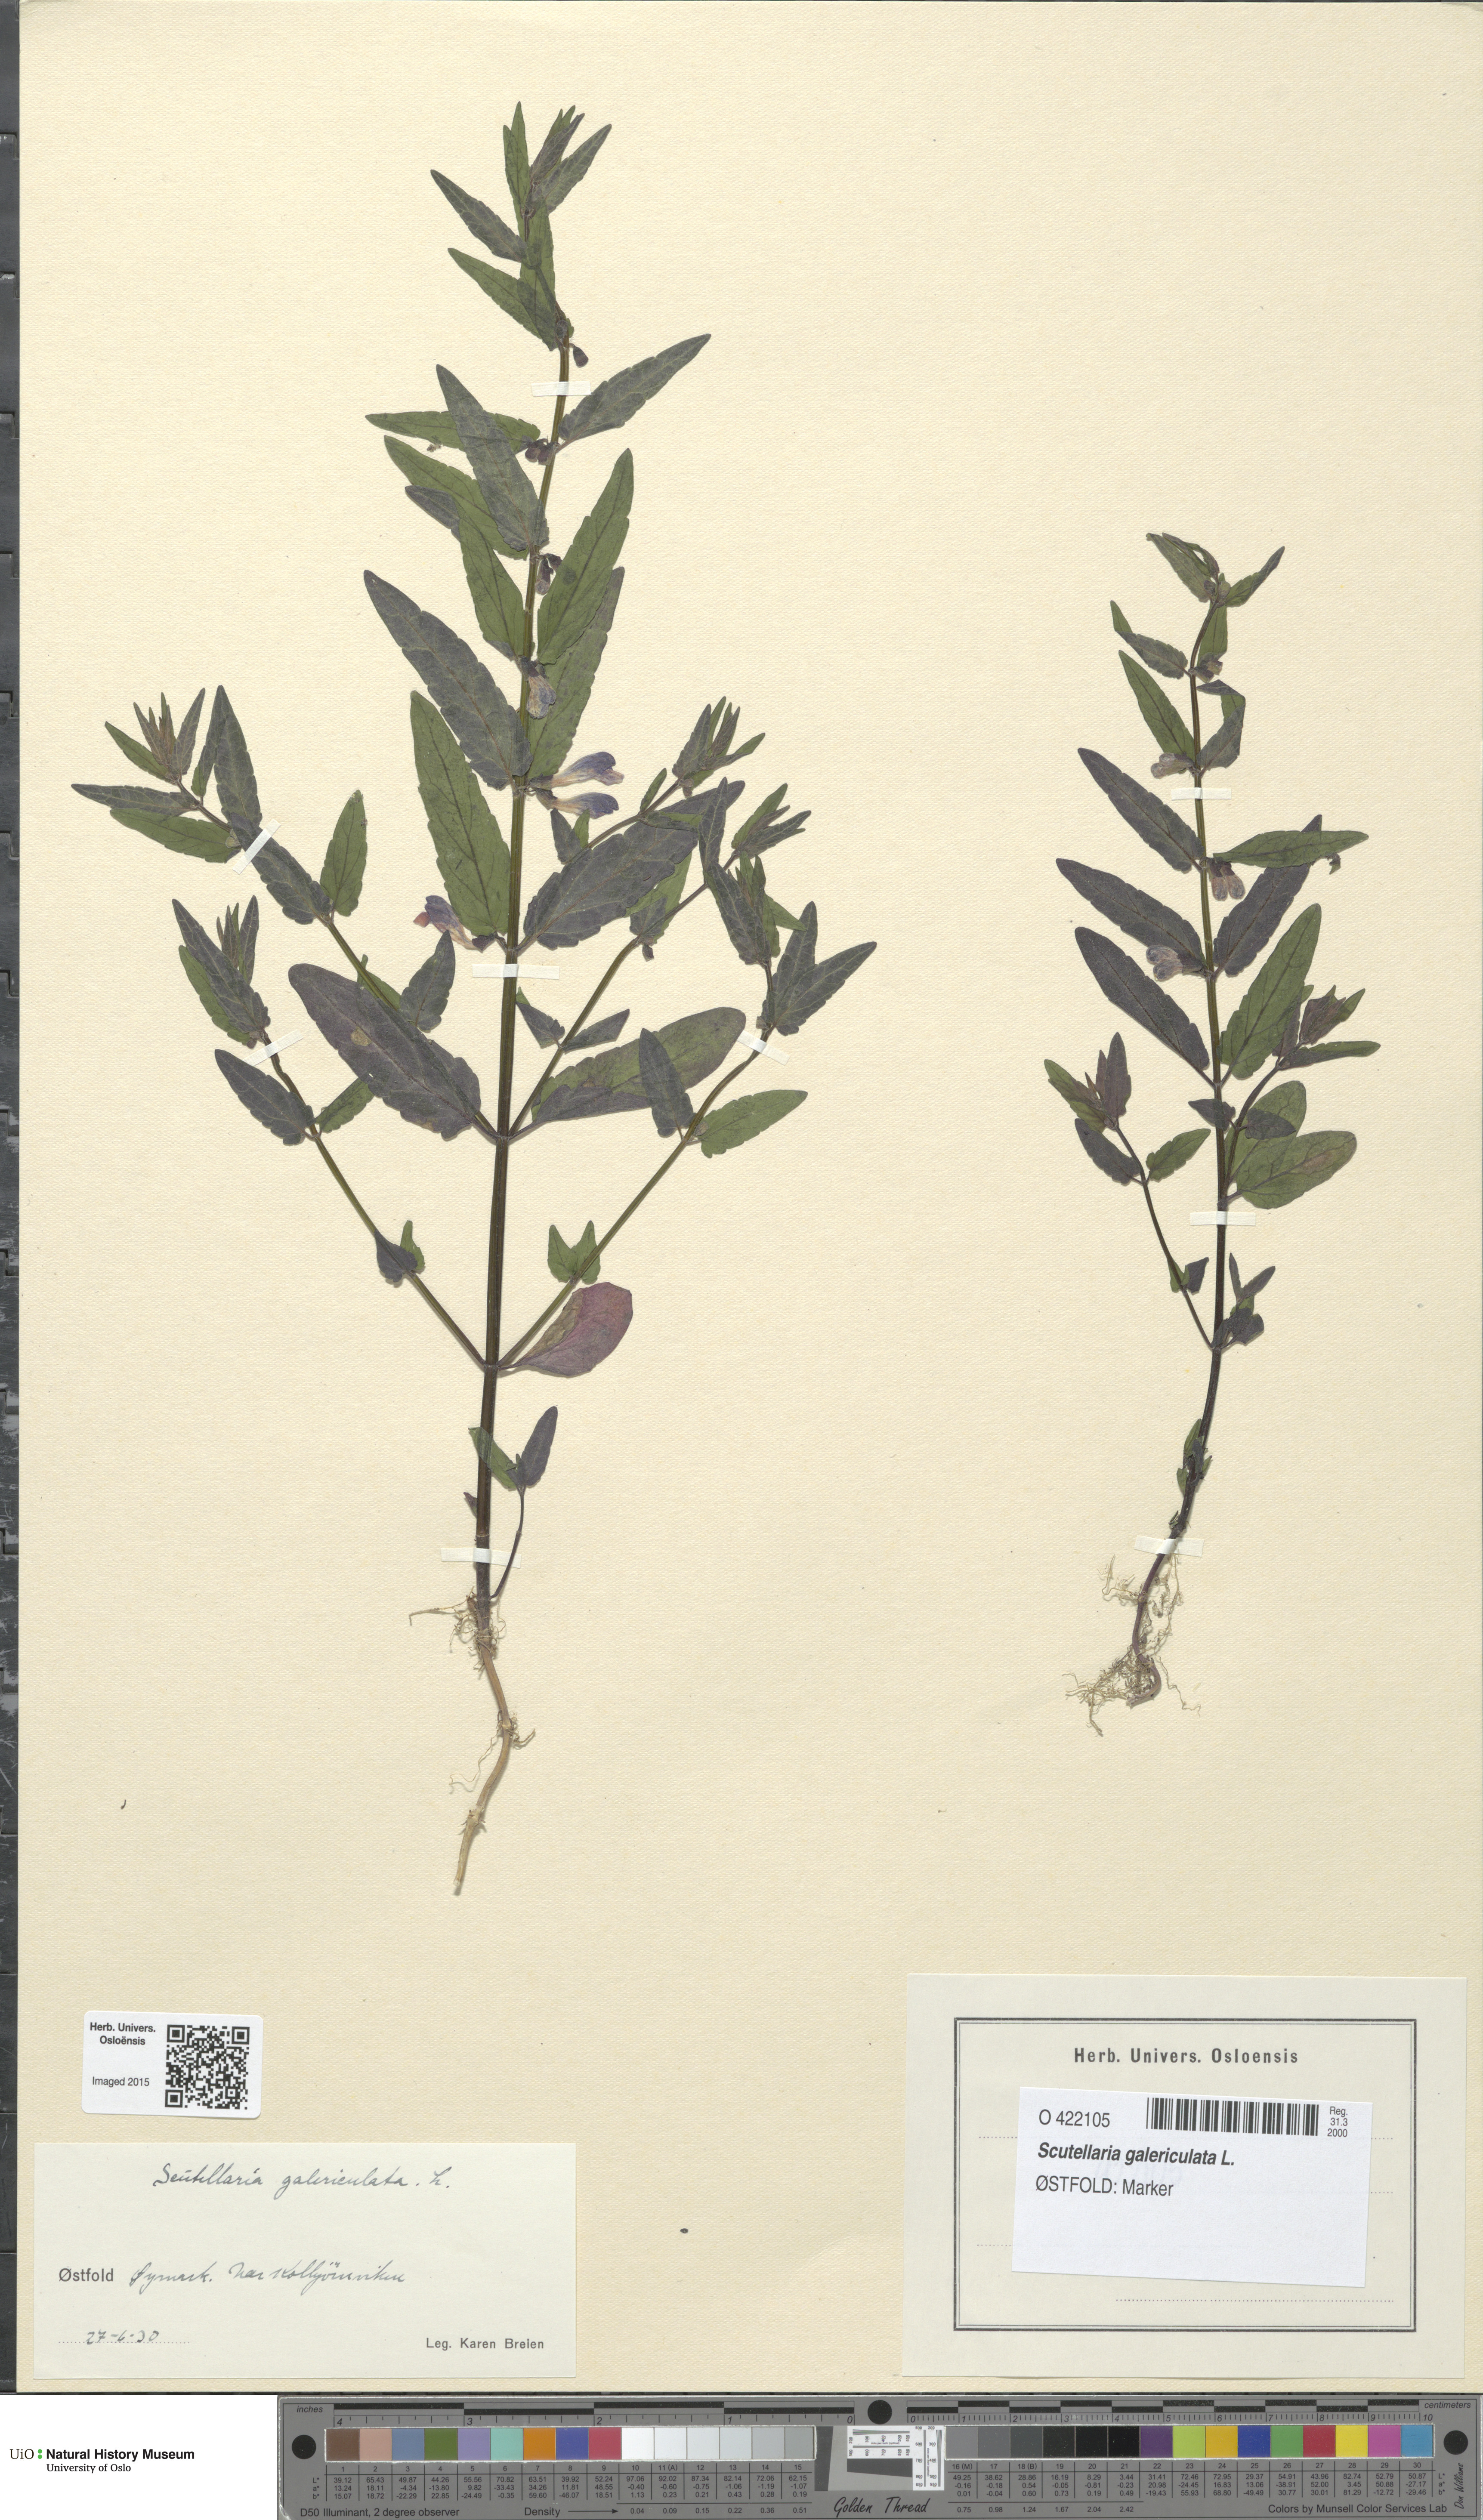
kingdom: Plantae
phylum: Tracheophyta
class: Magnoliopsida
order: Lamiales
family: Lamiaceae
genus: Scutellaria
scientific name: Scutellaria galericulata
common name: Skullcap
